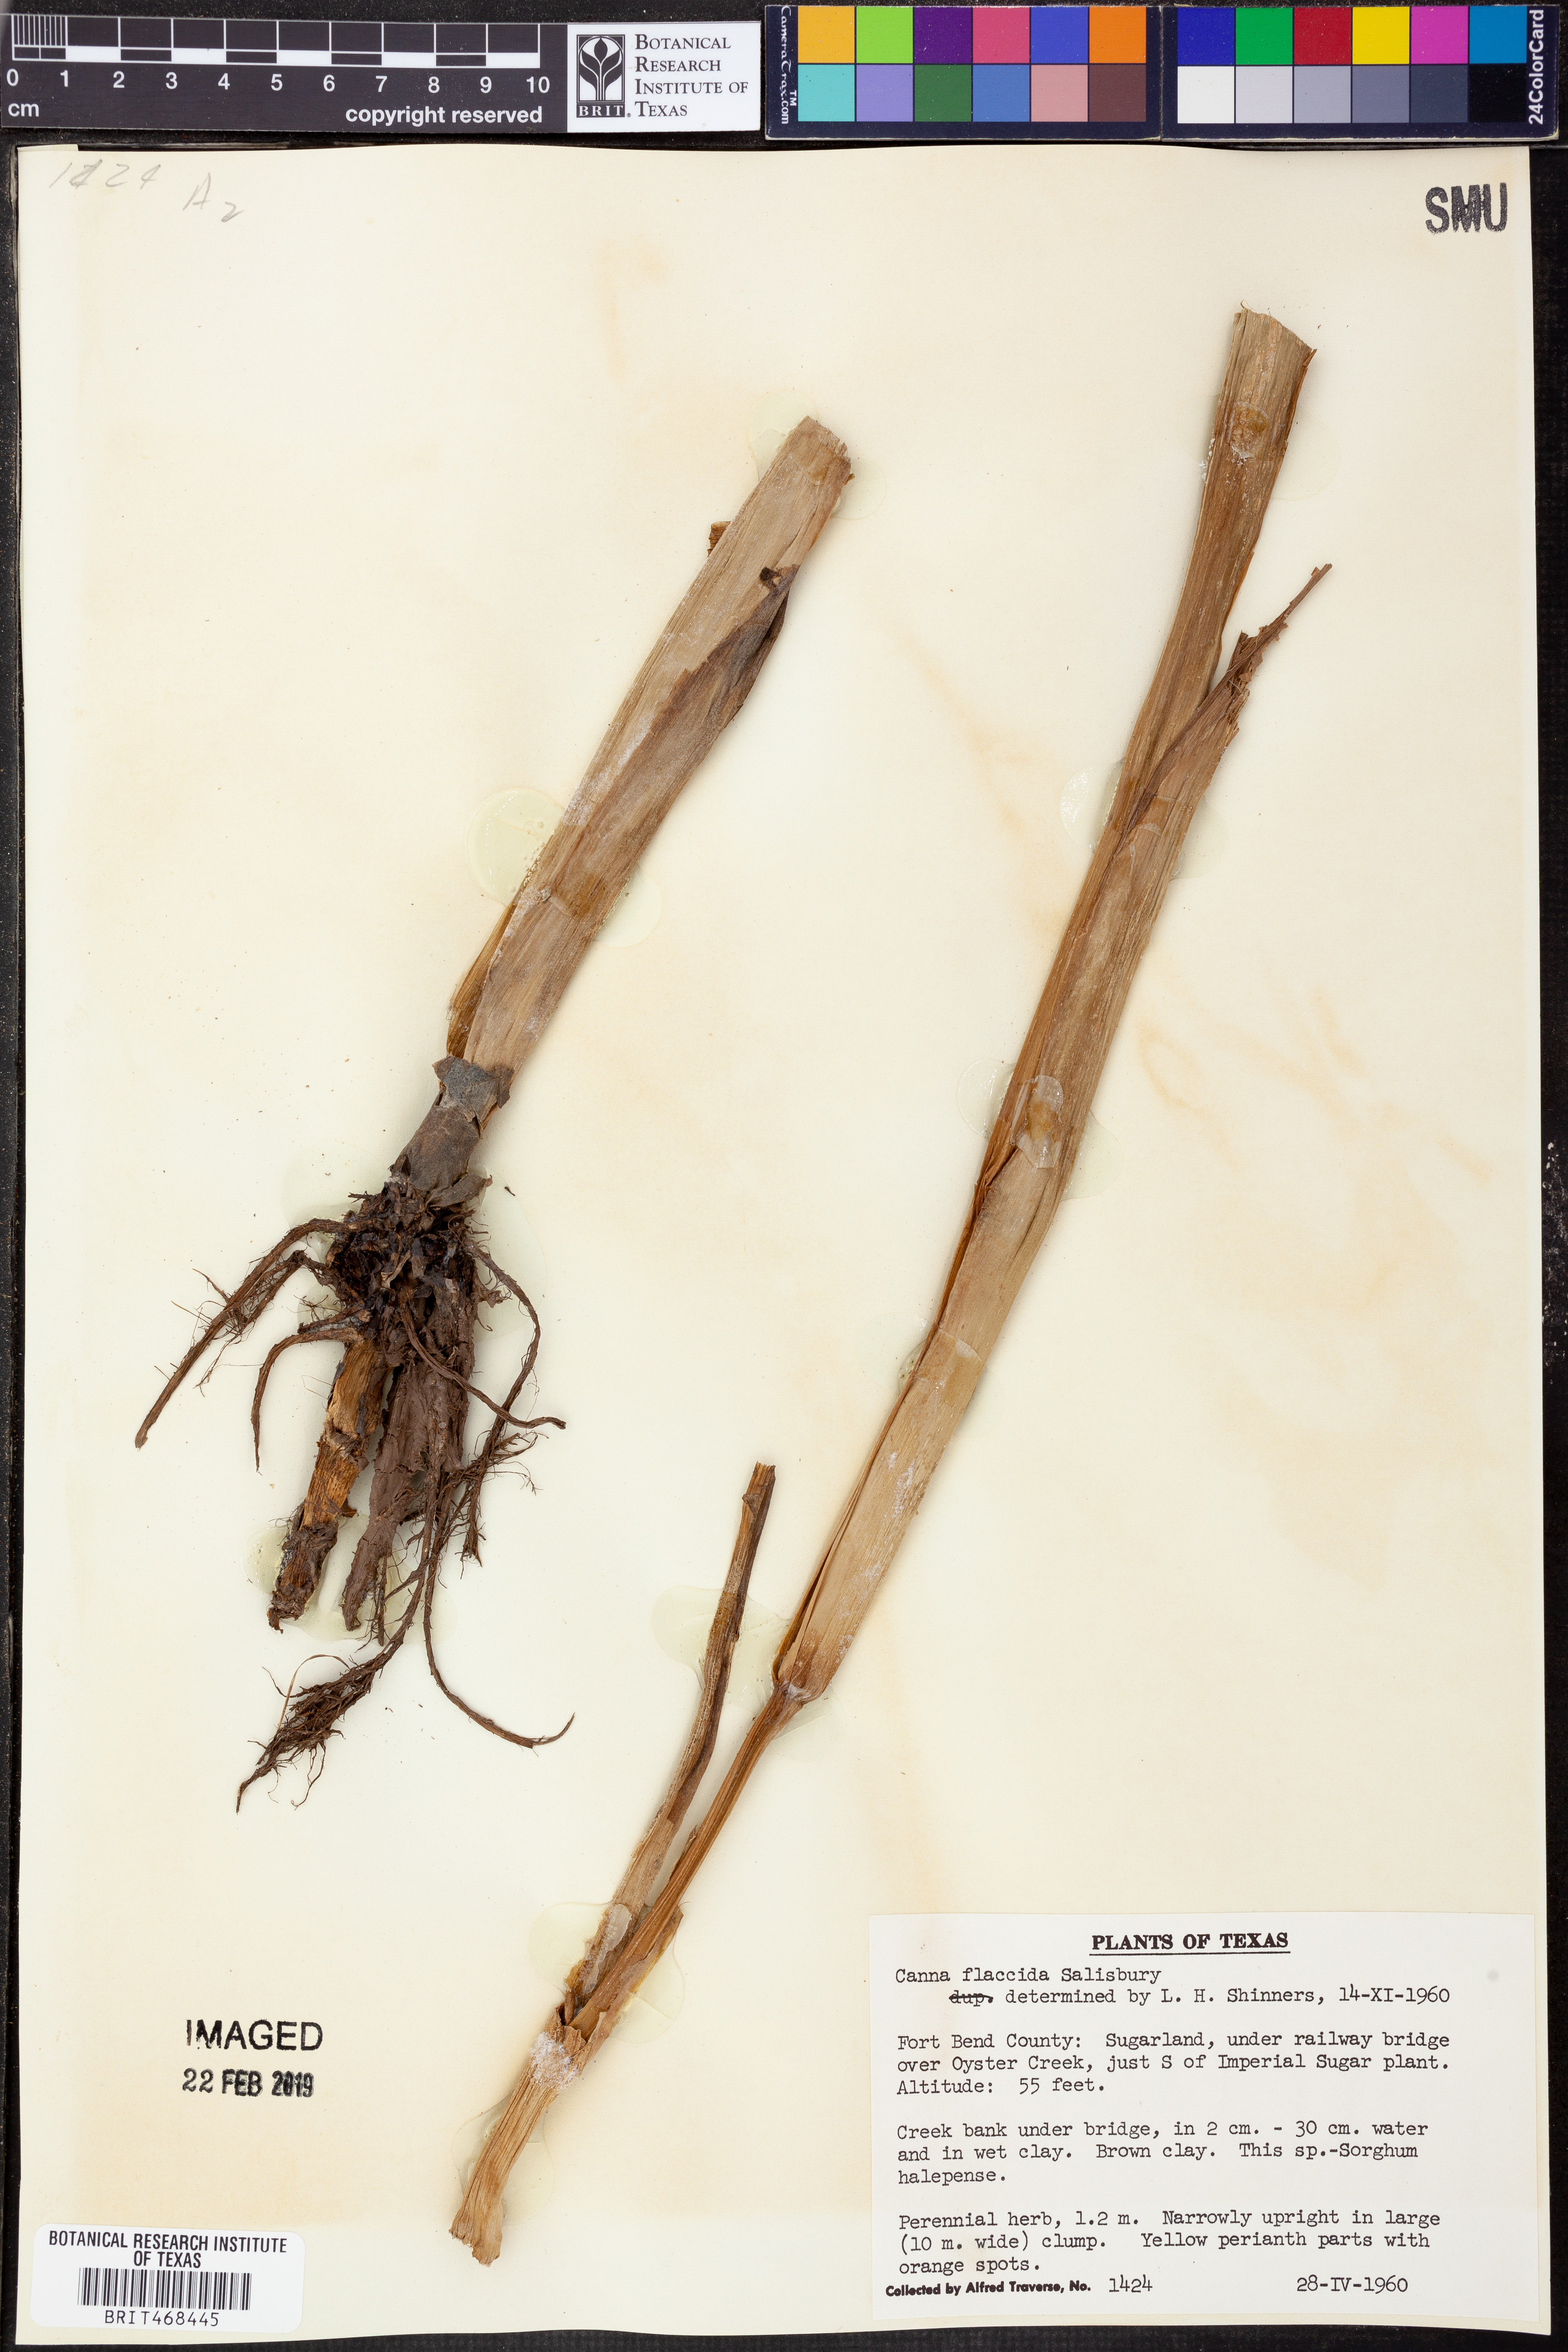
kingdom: Plantae
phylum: Tracheophyta
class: Liliopsida
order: Zingiberales
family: Cannaceae
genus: Canna
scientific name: Canna flaccida
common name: Bandana-of-the-everglades
